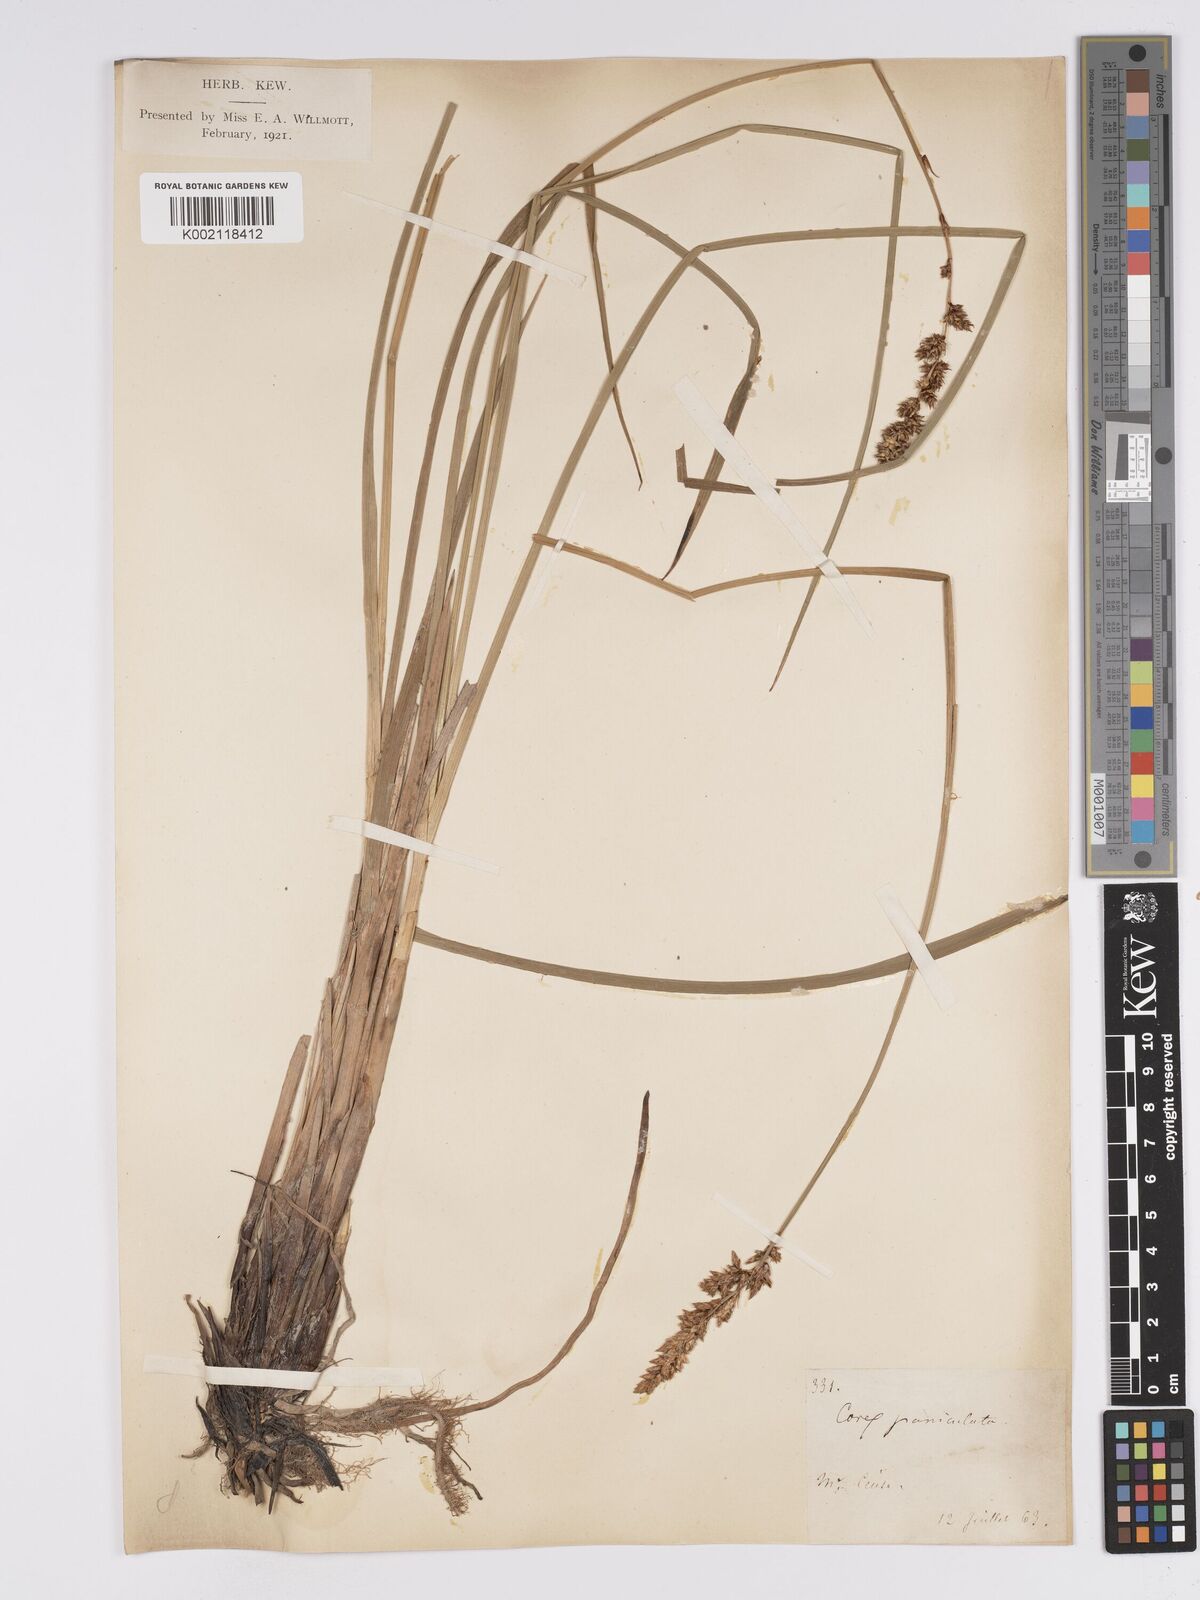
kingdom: Plantae
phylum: Tracheophyta
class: Liliopsida
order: Poales
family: Cyperaceae
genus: Carex
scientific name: Carex paniculata
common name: Greater tussock-sedge
